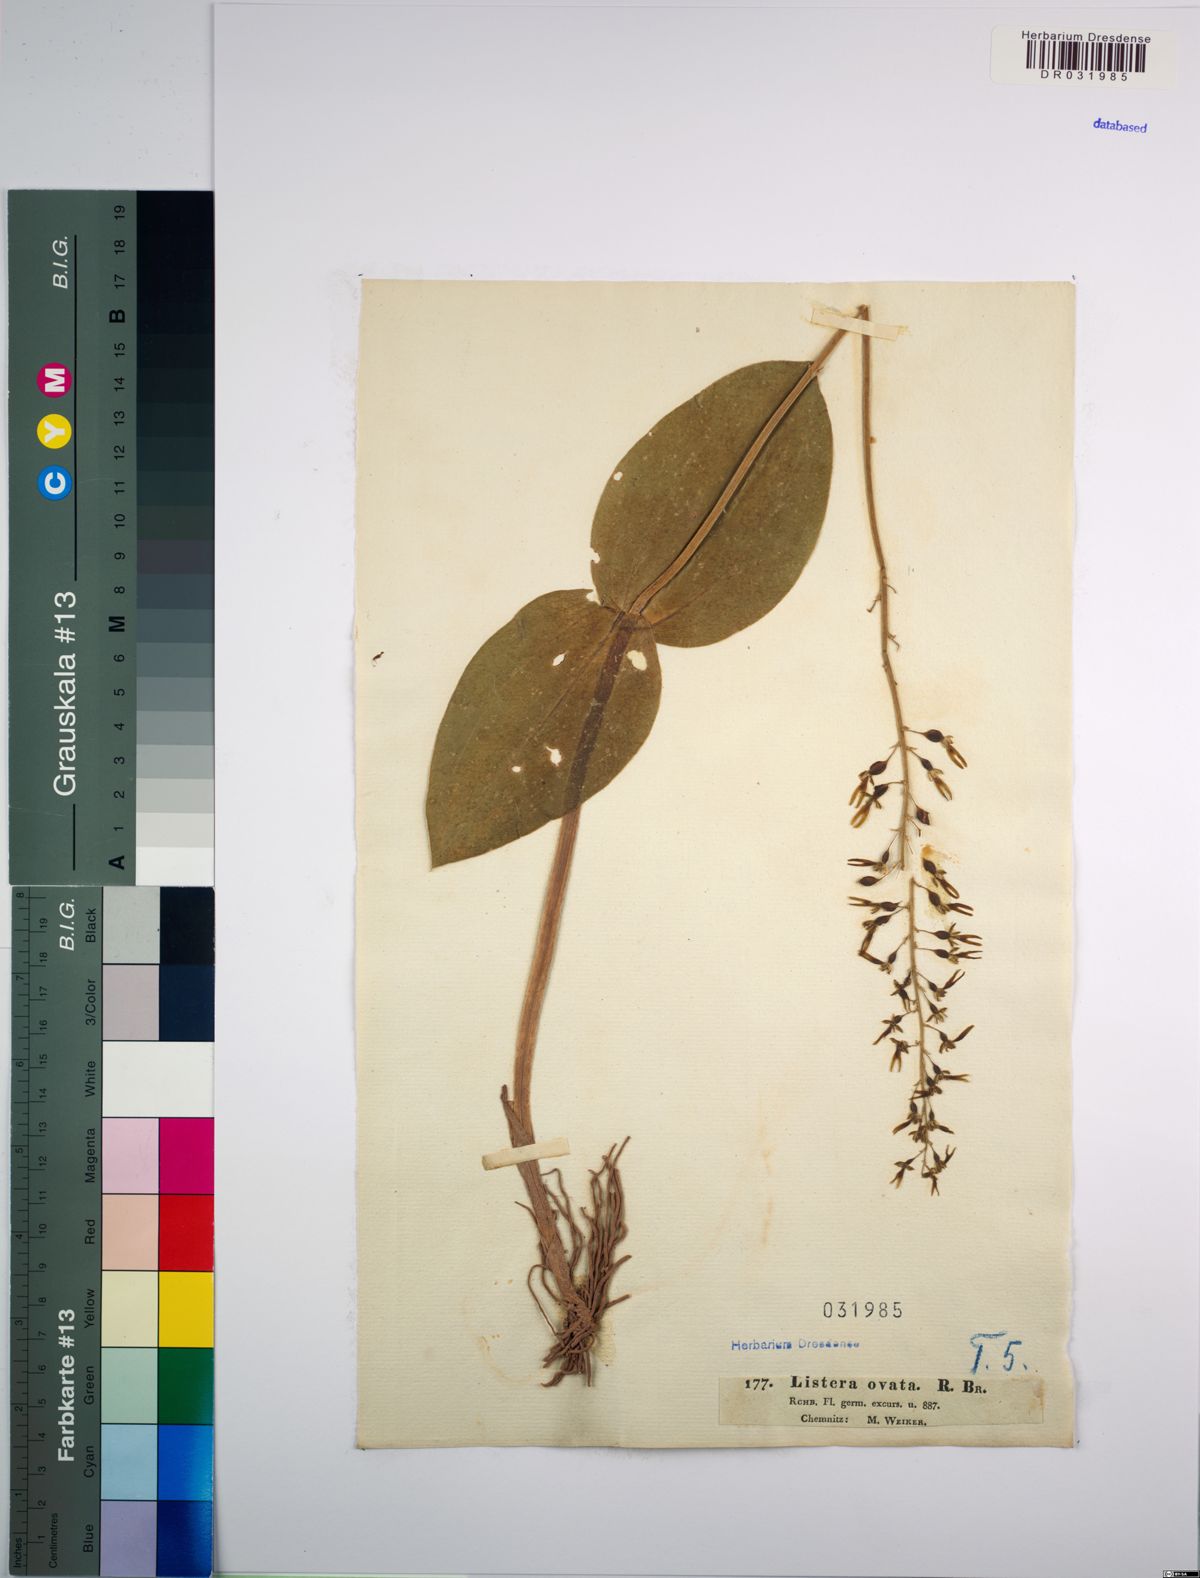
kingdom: Plantae
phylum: Tracheophyta
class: Liliopsida
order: Asparagales
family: Orchidaceae
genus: Neottia
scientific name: Neottia ovata
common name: Common twayblade
